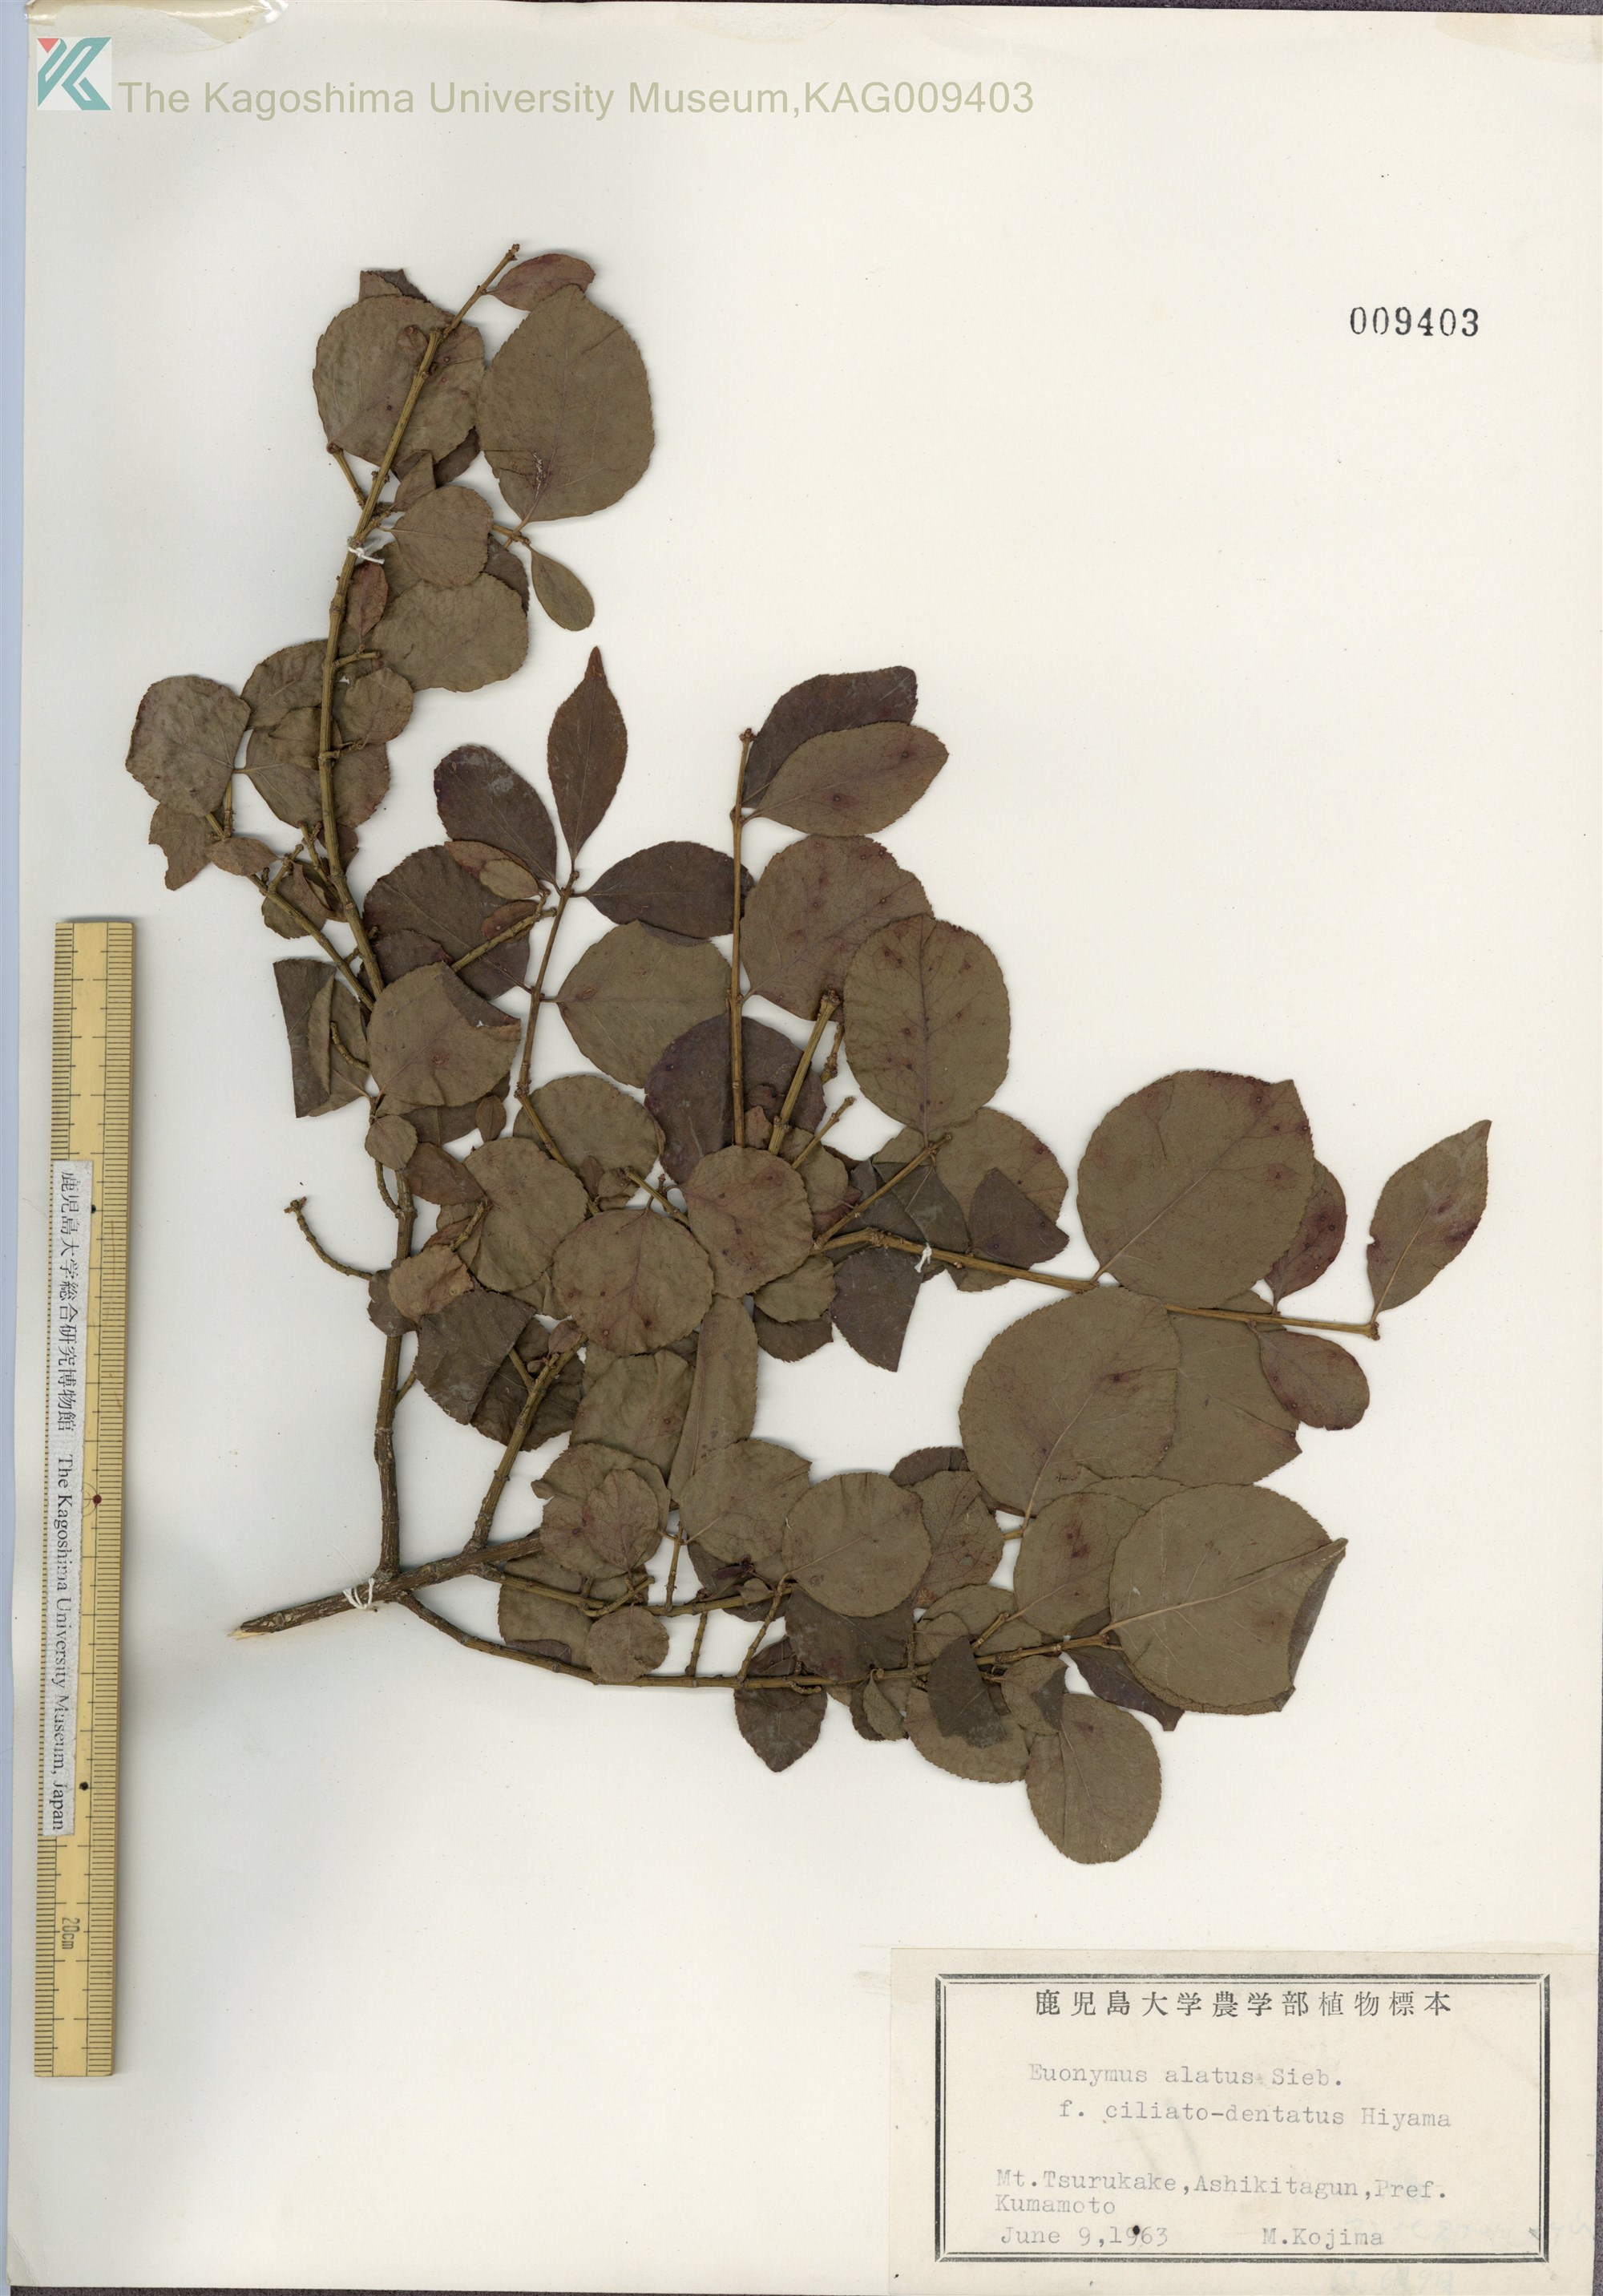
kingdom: Plantae
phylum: Tracheophyta
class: Magnoliopsida
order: Celastrales
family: Celastraceae
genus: Euonymus
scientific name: Euonymus alatus
